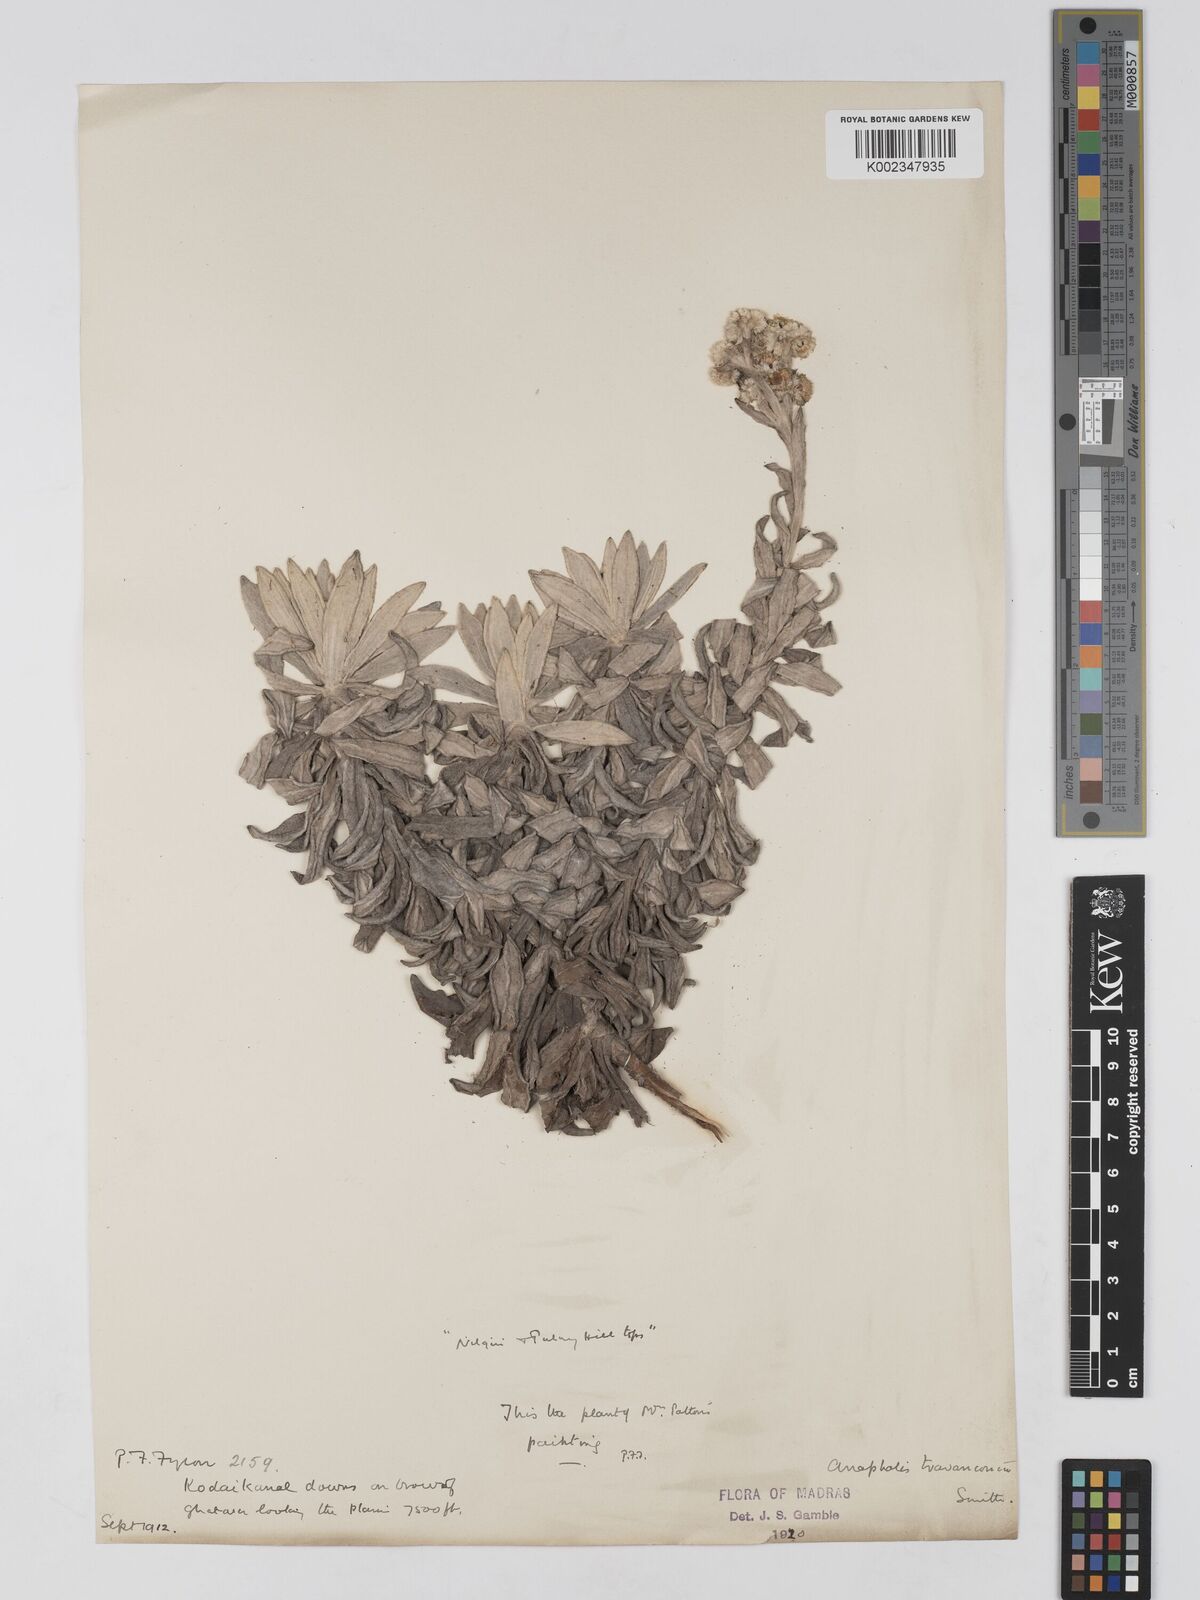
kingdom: Plantae
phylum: Tracheophyta
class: Magnoliopsida
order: Asterales
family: Asteraceae
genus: Anaphalis
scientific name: Anaphalis travancorica
